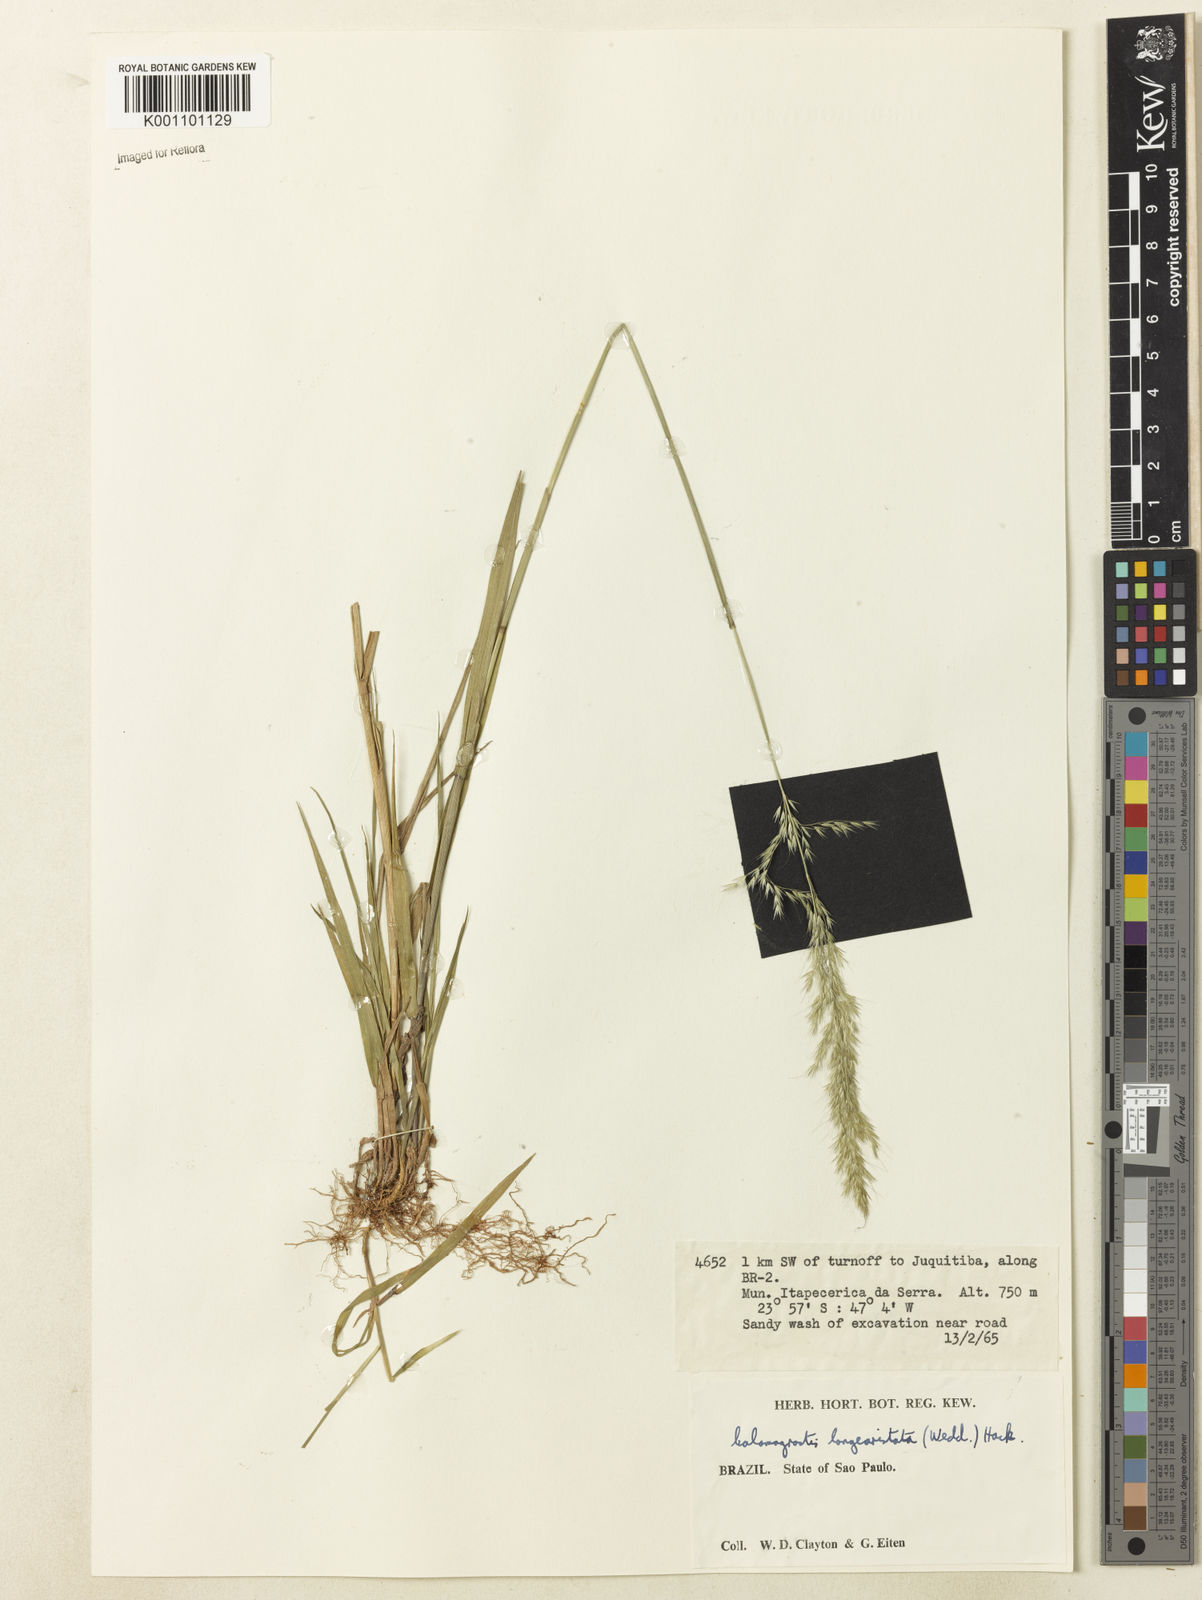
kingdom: Plantae
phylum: Tracheophyta
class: Liliopsida
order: Poales
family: Poaceae
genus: Cinnagrostis
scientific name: Cinnagrostis rupestris
